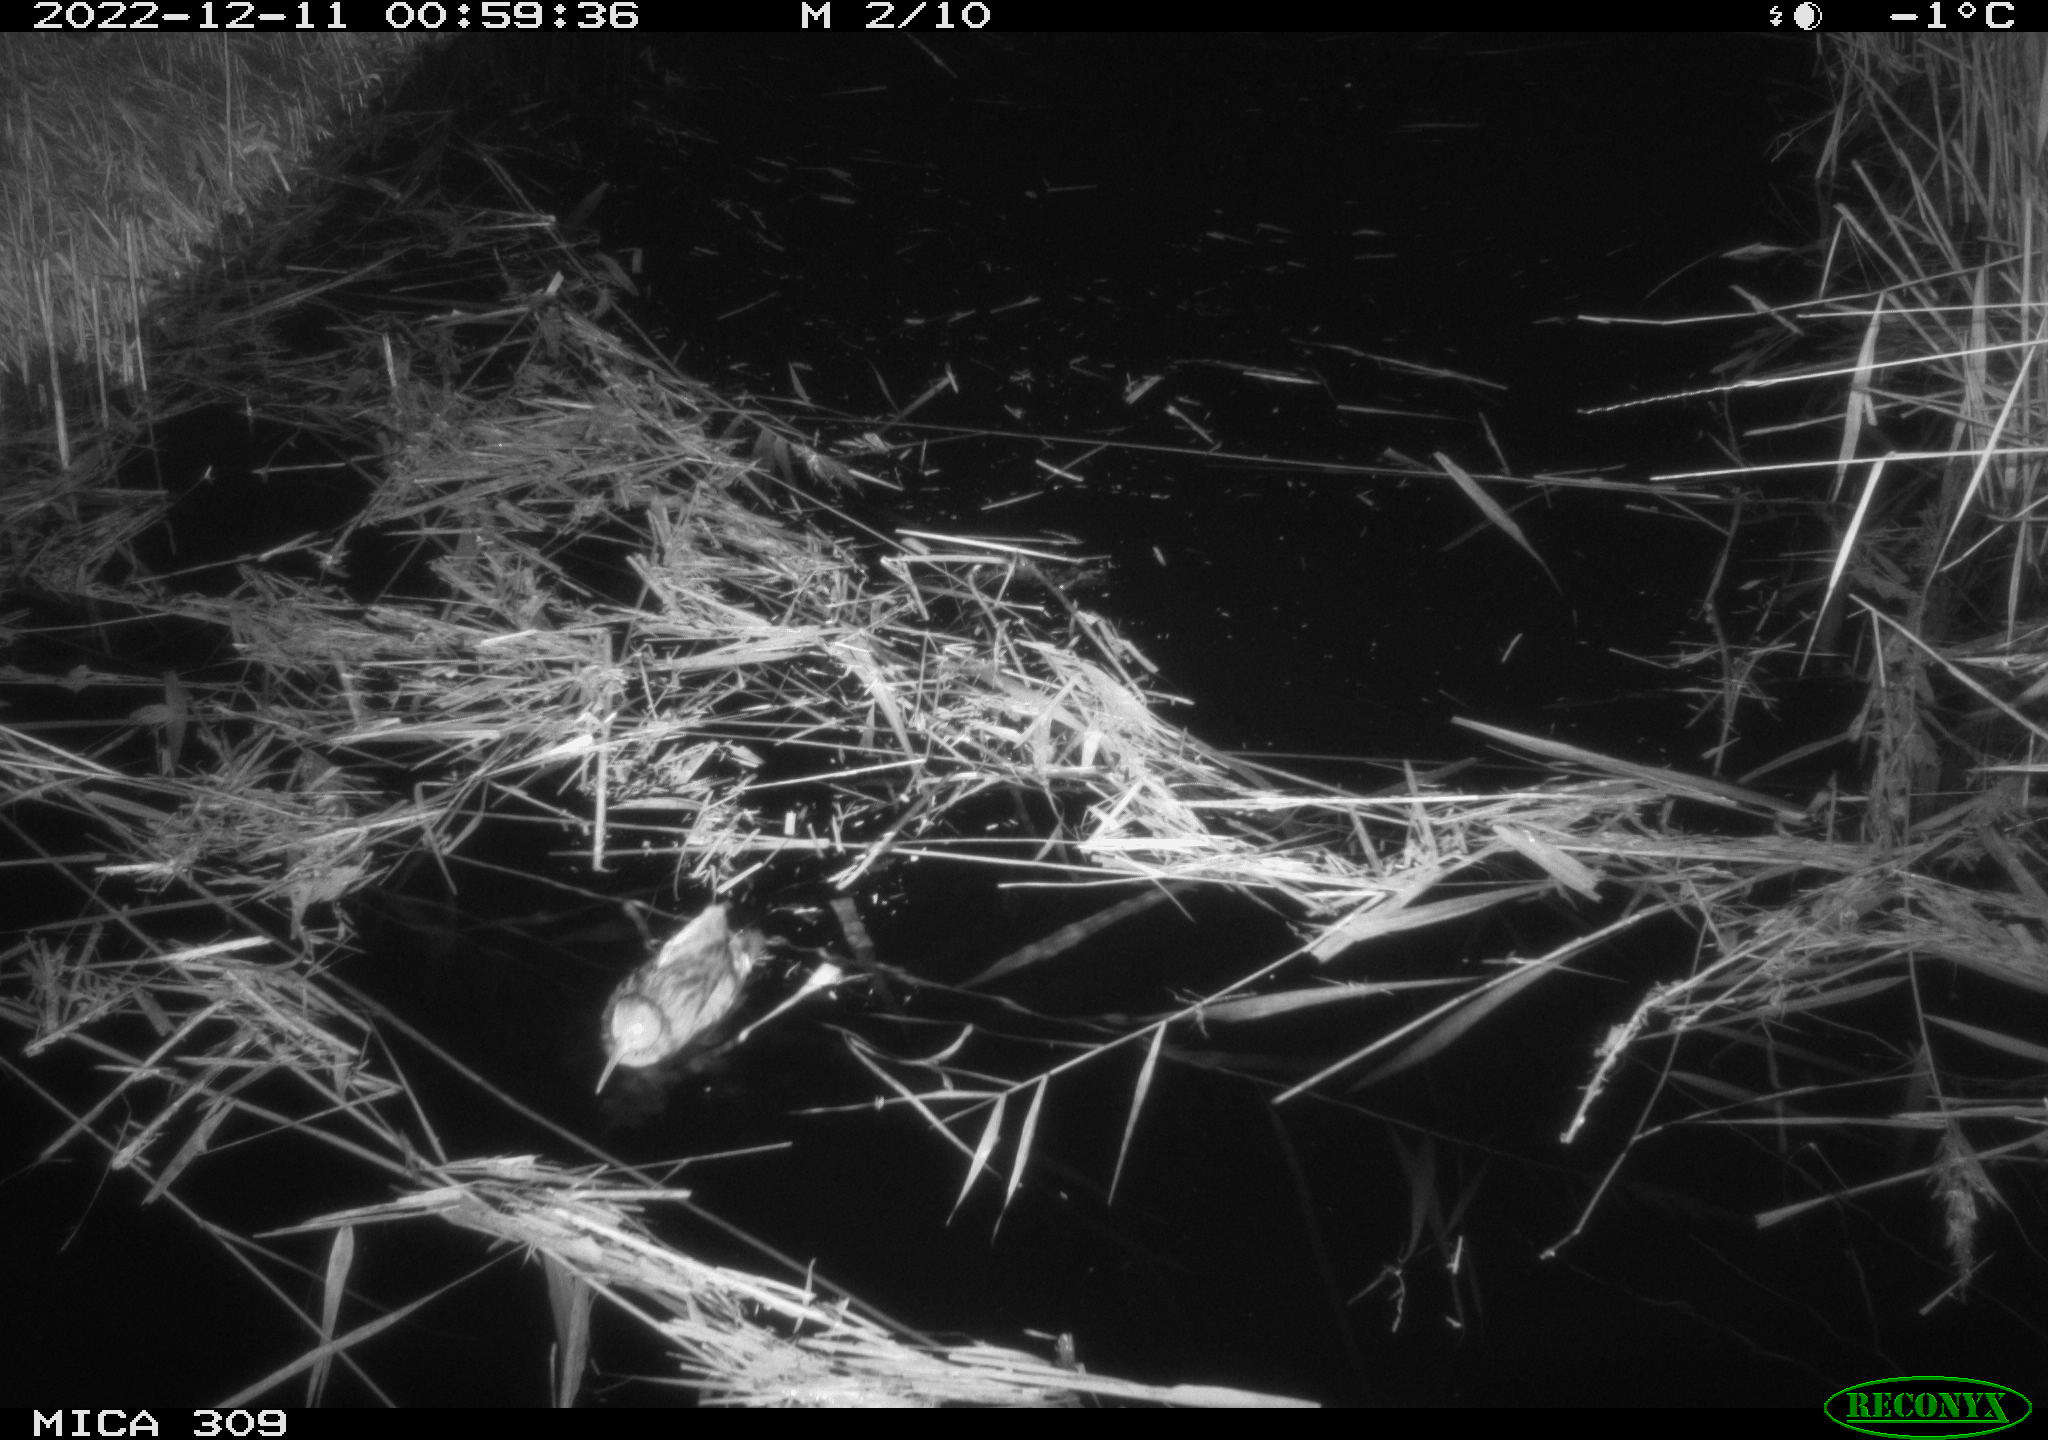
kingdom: Animalia
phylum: Chordata
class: Mammalia
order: Rodentia
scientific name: Rodentia
